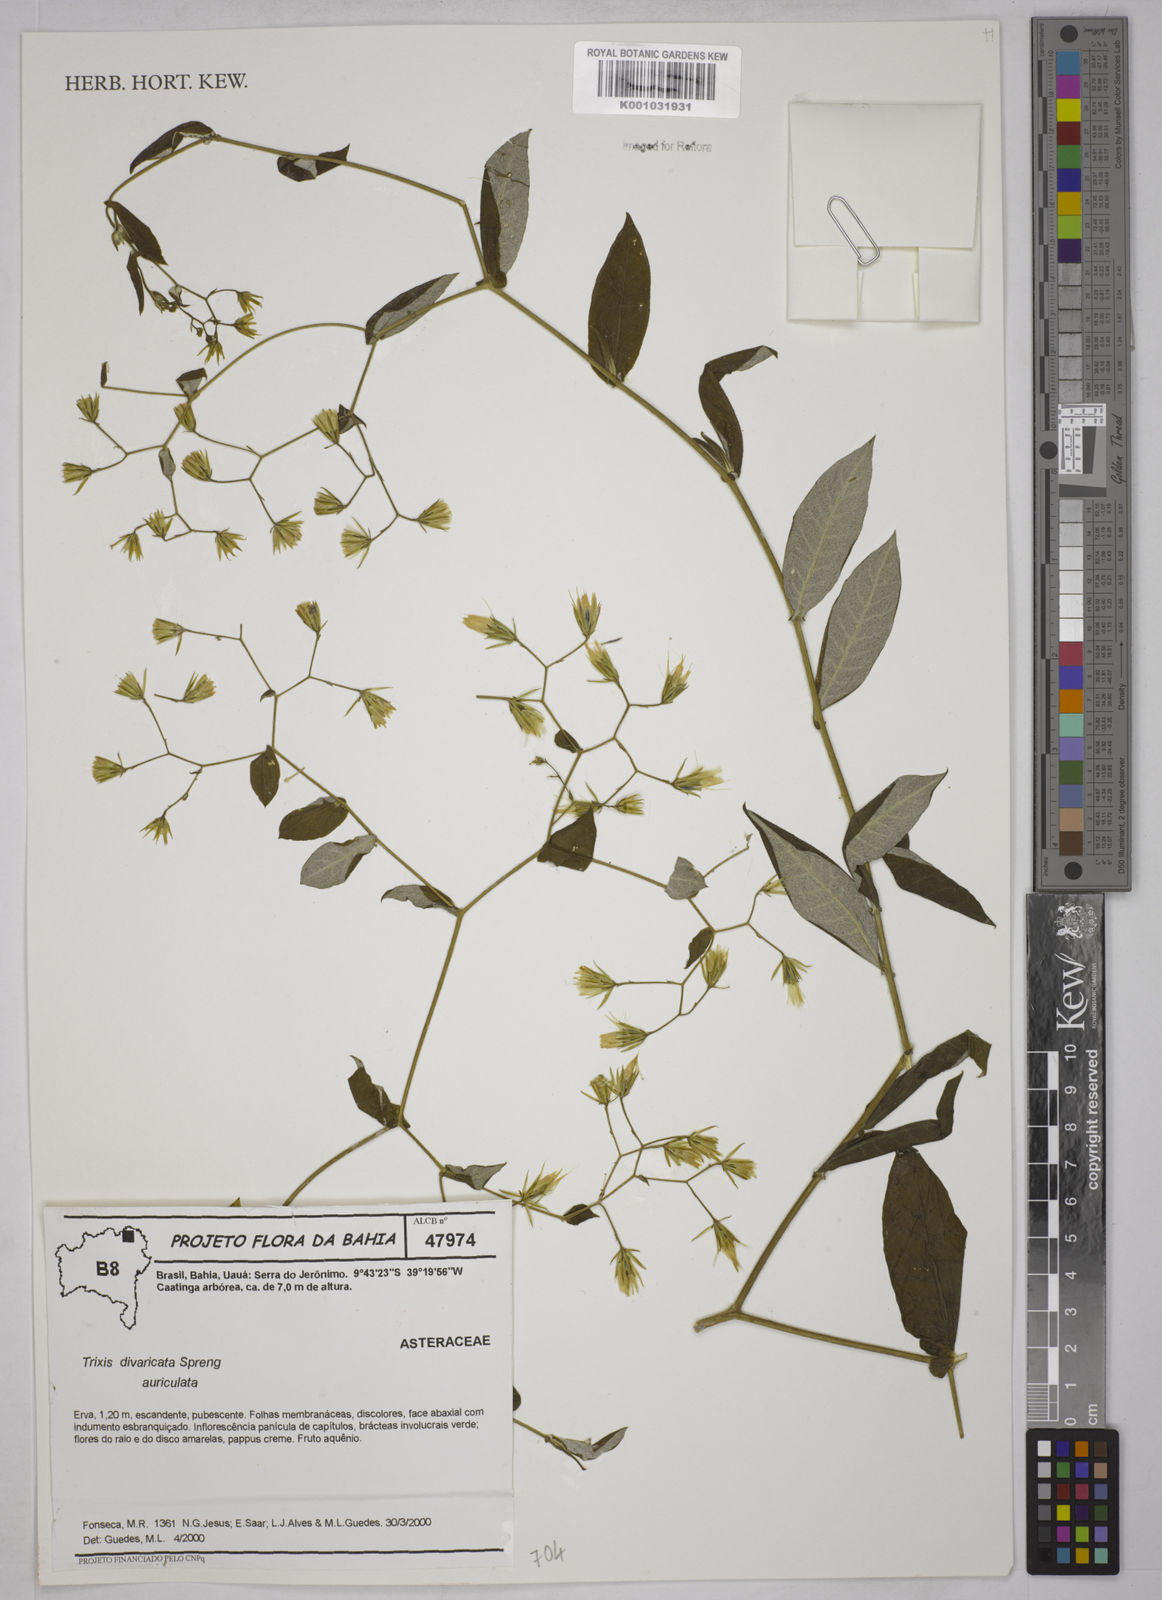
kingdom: Plantae
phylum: Tracheophyta
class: Magnoliopsida
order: Asterales
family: Asteraceae
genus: Trixis
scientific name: Trixis divaricata
